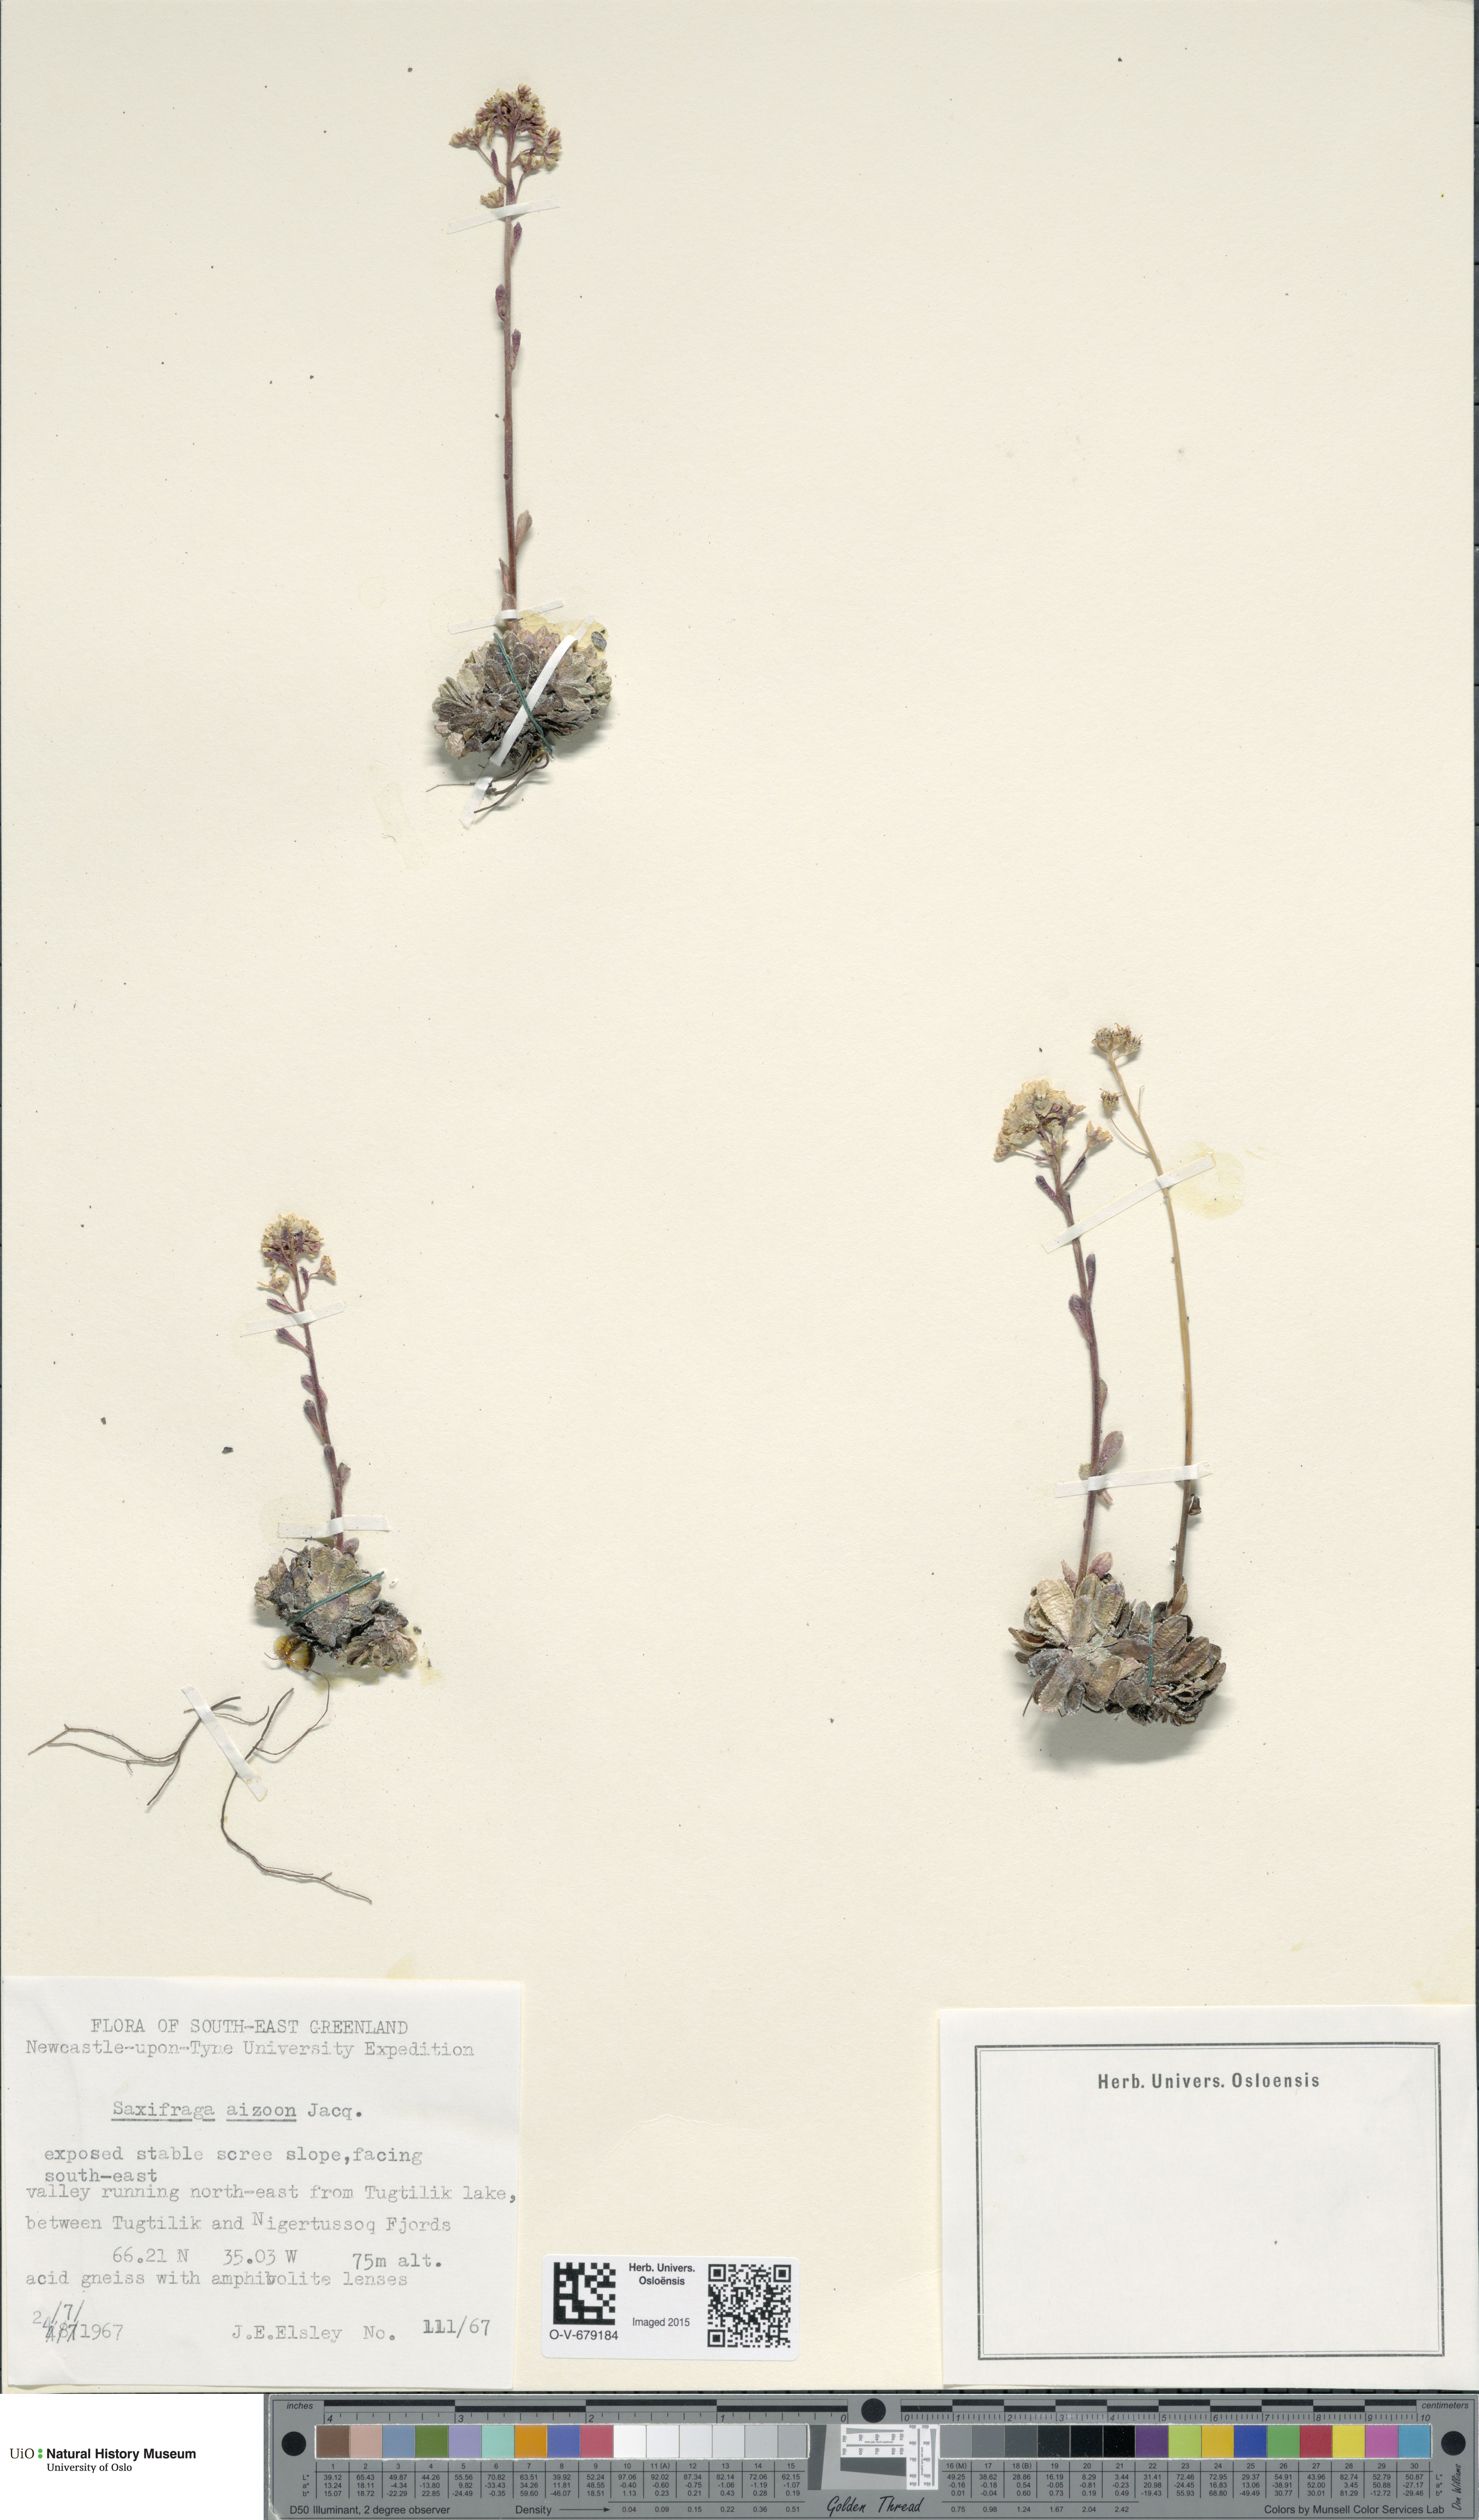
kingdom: Plantae
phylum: Tracheophyta
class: Magnoliopsida
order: Saxifragales
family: Saxifragaceae
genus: Saxifraga
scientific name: Saxifraga paniculata
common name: Livelong saxifrage
